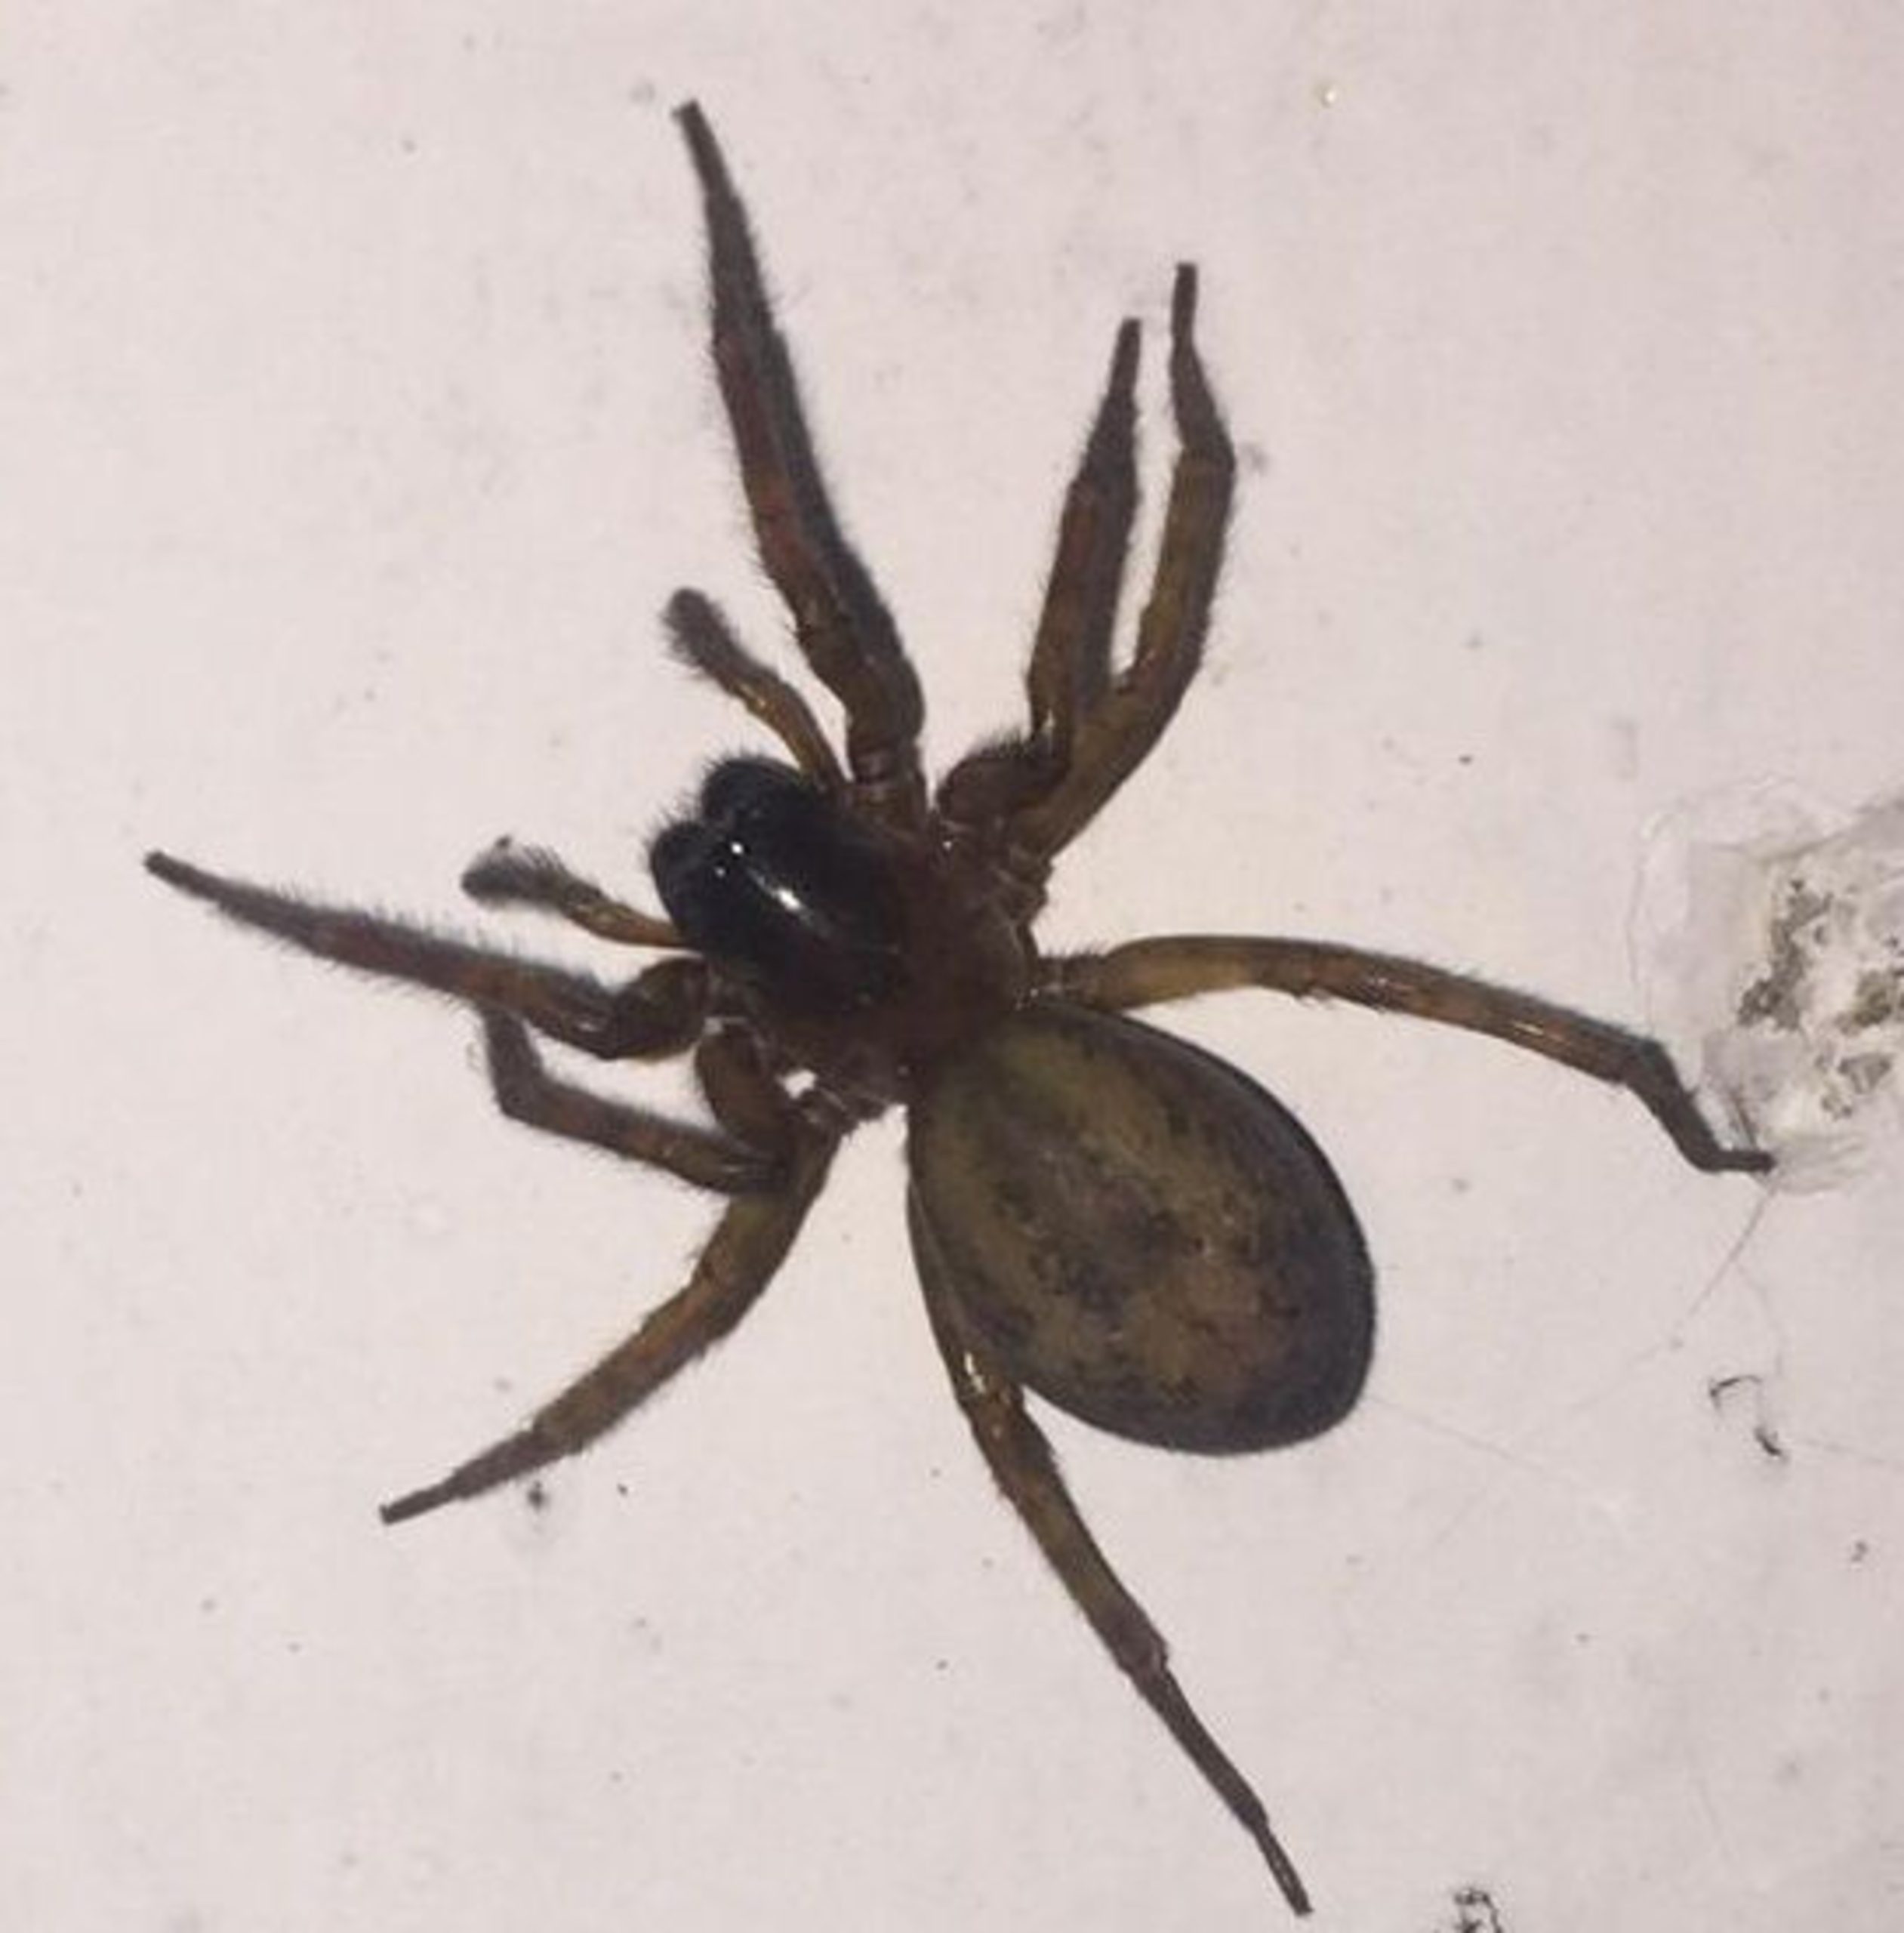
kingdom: Animalia
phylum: Arthropoda
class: Arachnida
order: Araneae
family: Amaurobiidae
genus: Amaurobius
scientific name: Amaurobius similis
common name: Huskartespinder
